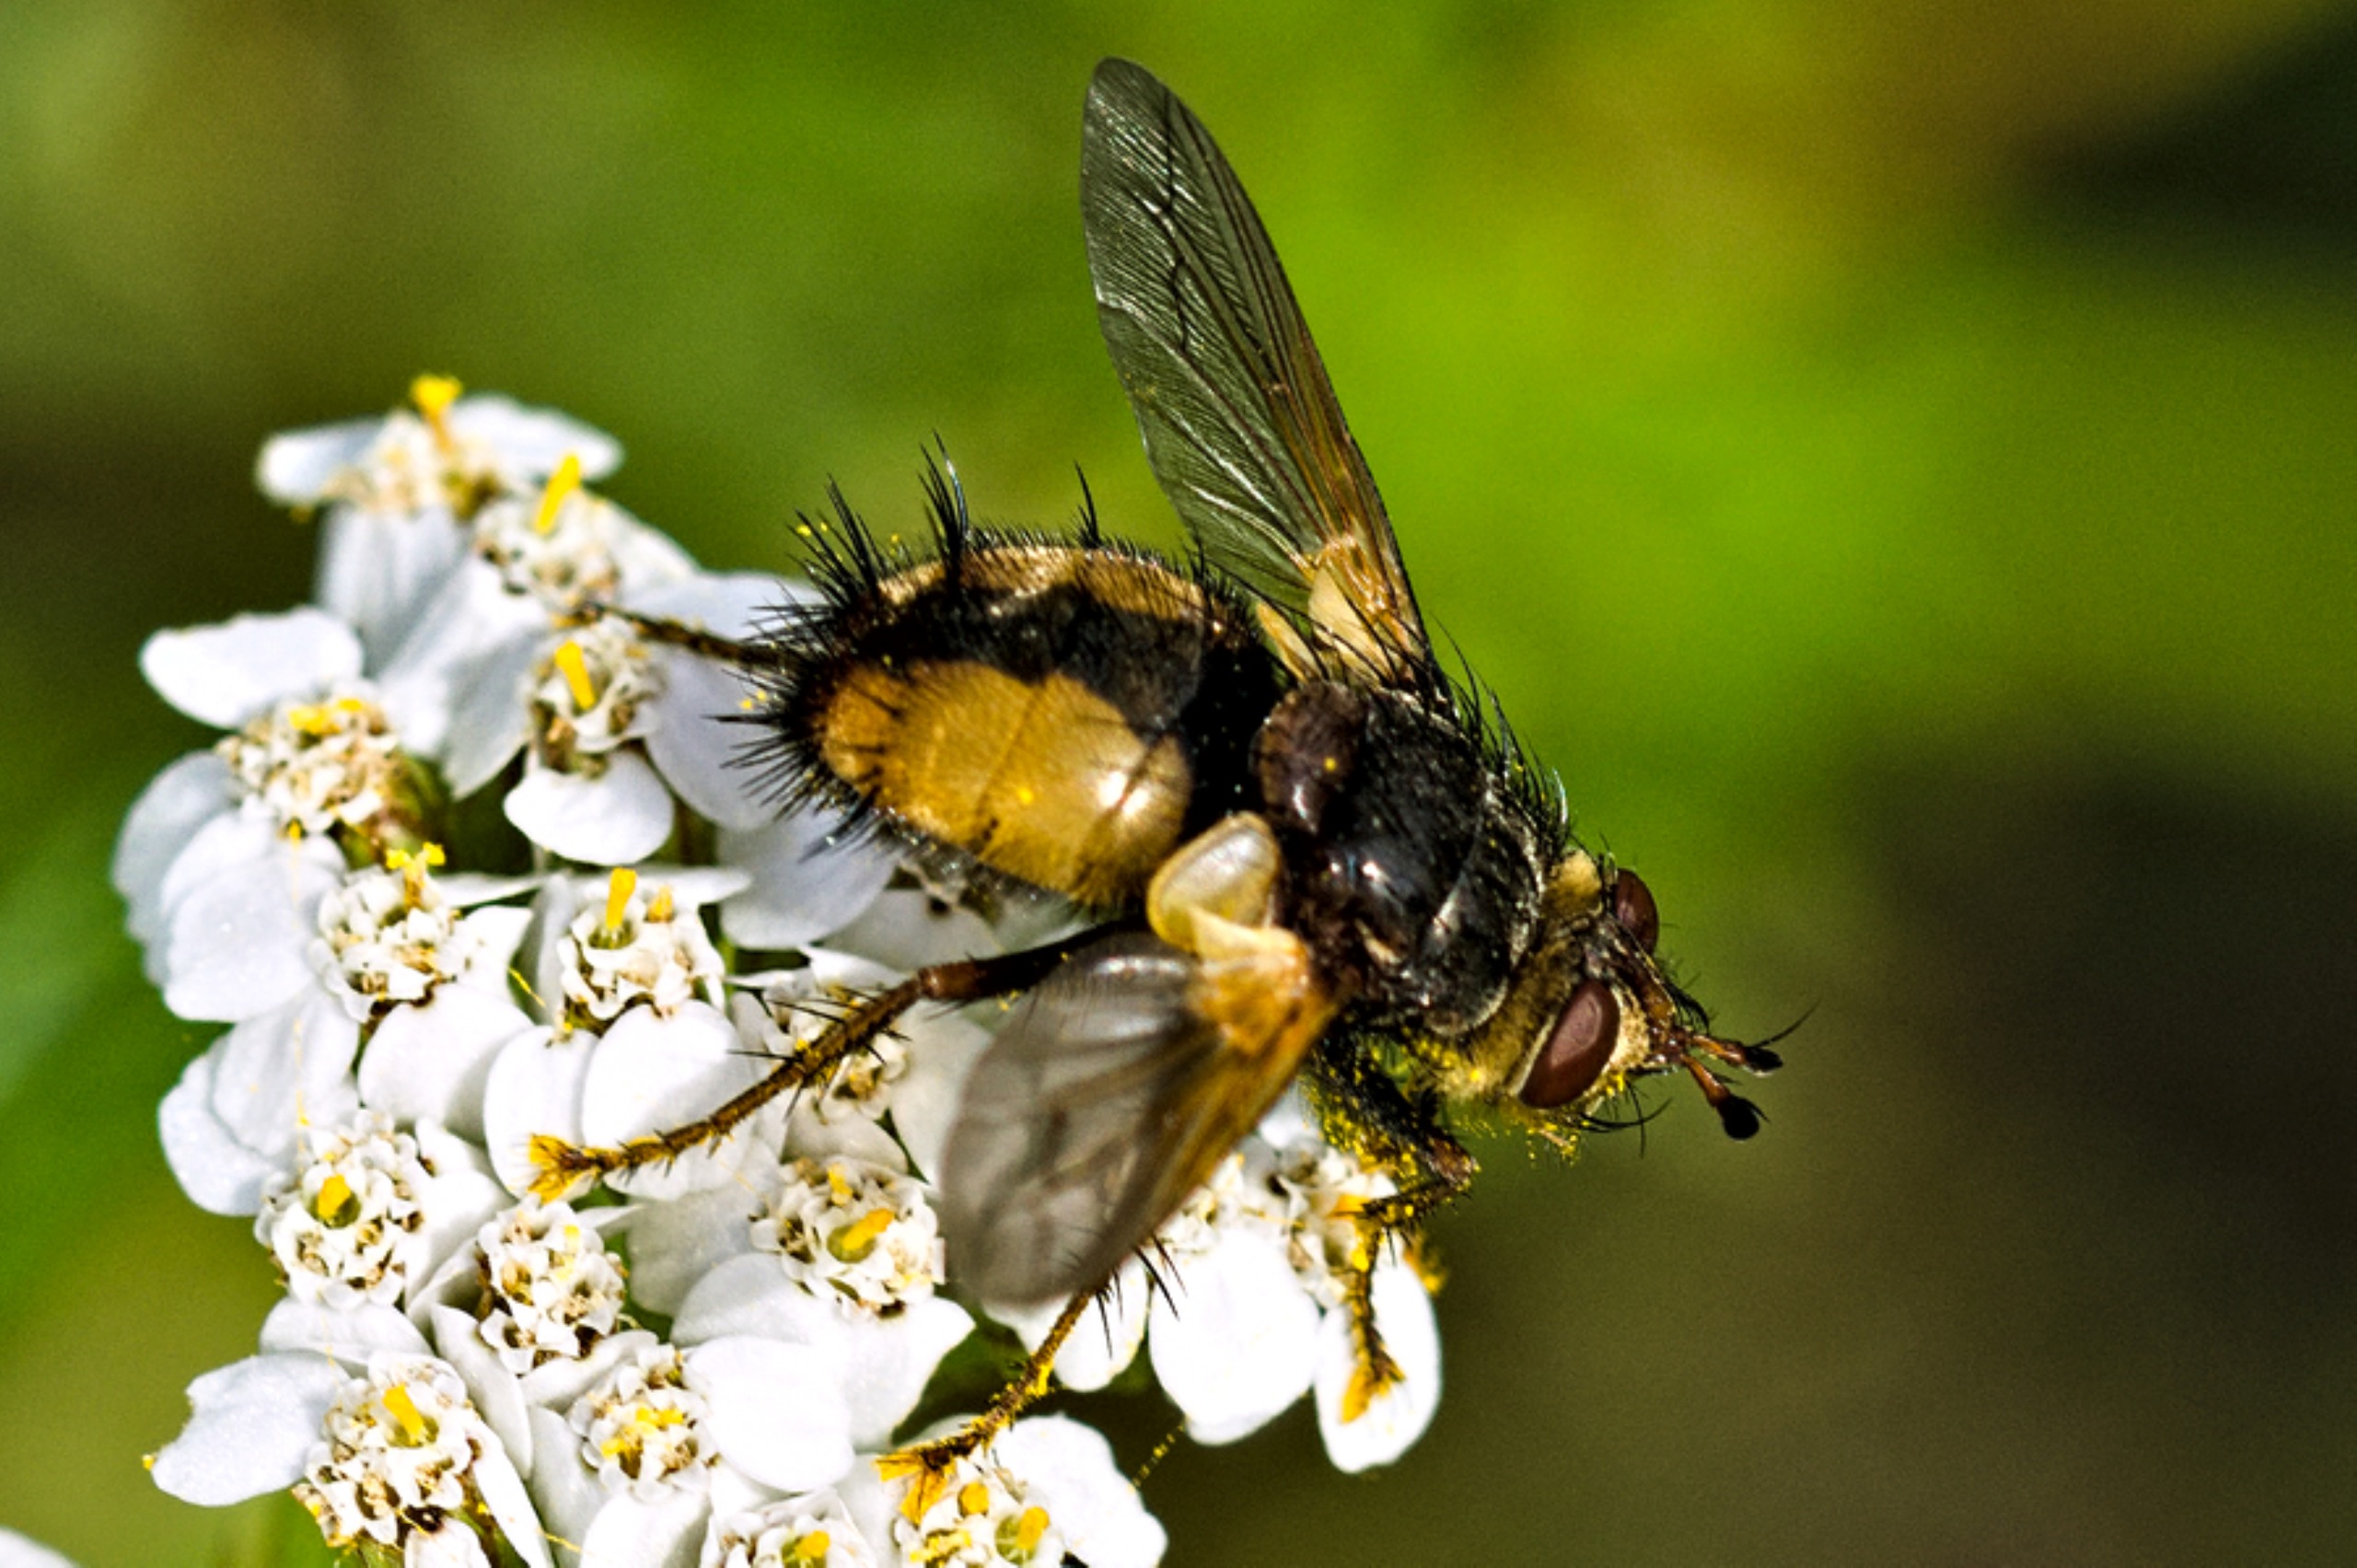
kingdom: Animalia
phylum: Arthropoda
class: Insecta
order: Diptera
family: Tachinidae
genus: Tachina
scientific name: Tachina fera
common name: Mellemfluen oskar
